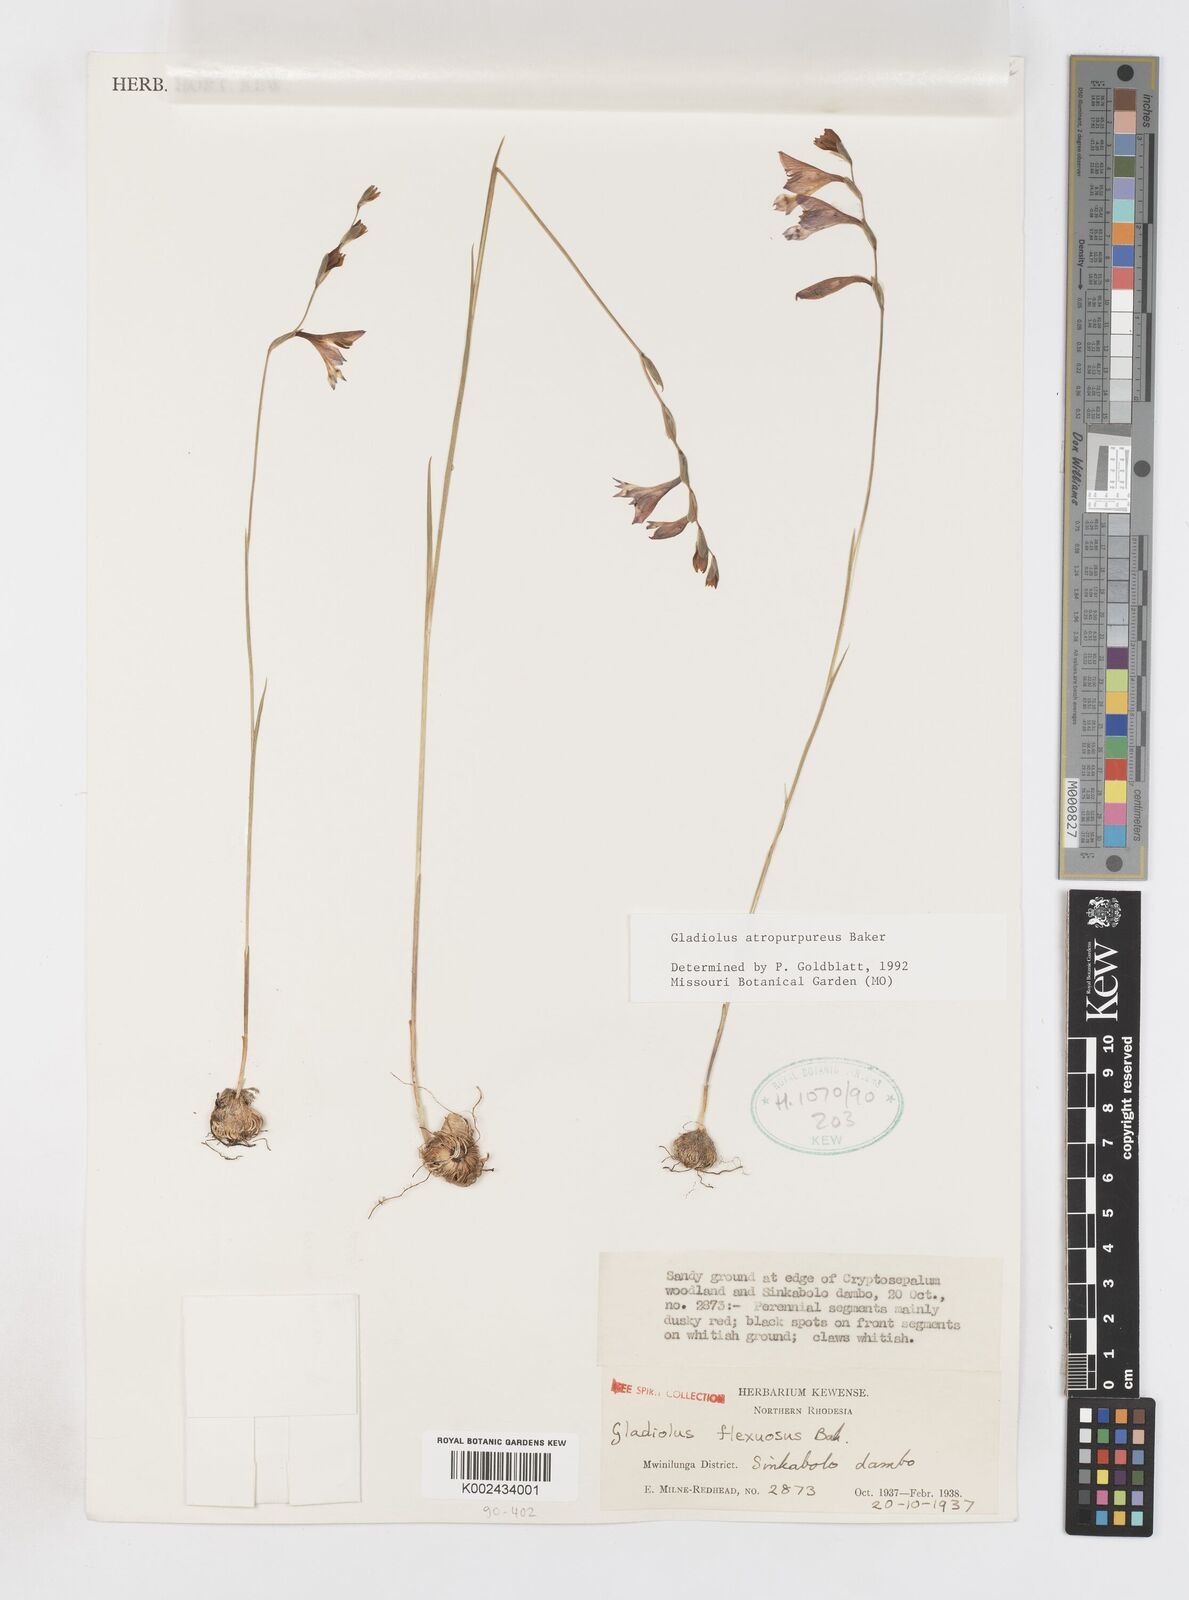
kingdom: Plantae
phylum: Tracheophyta
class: Liliopsida
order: Asparagales
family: Iridaceae
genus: Gladiolus
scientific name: Gladiolus atropurpureus
